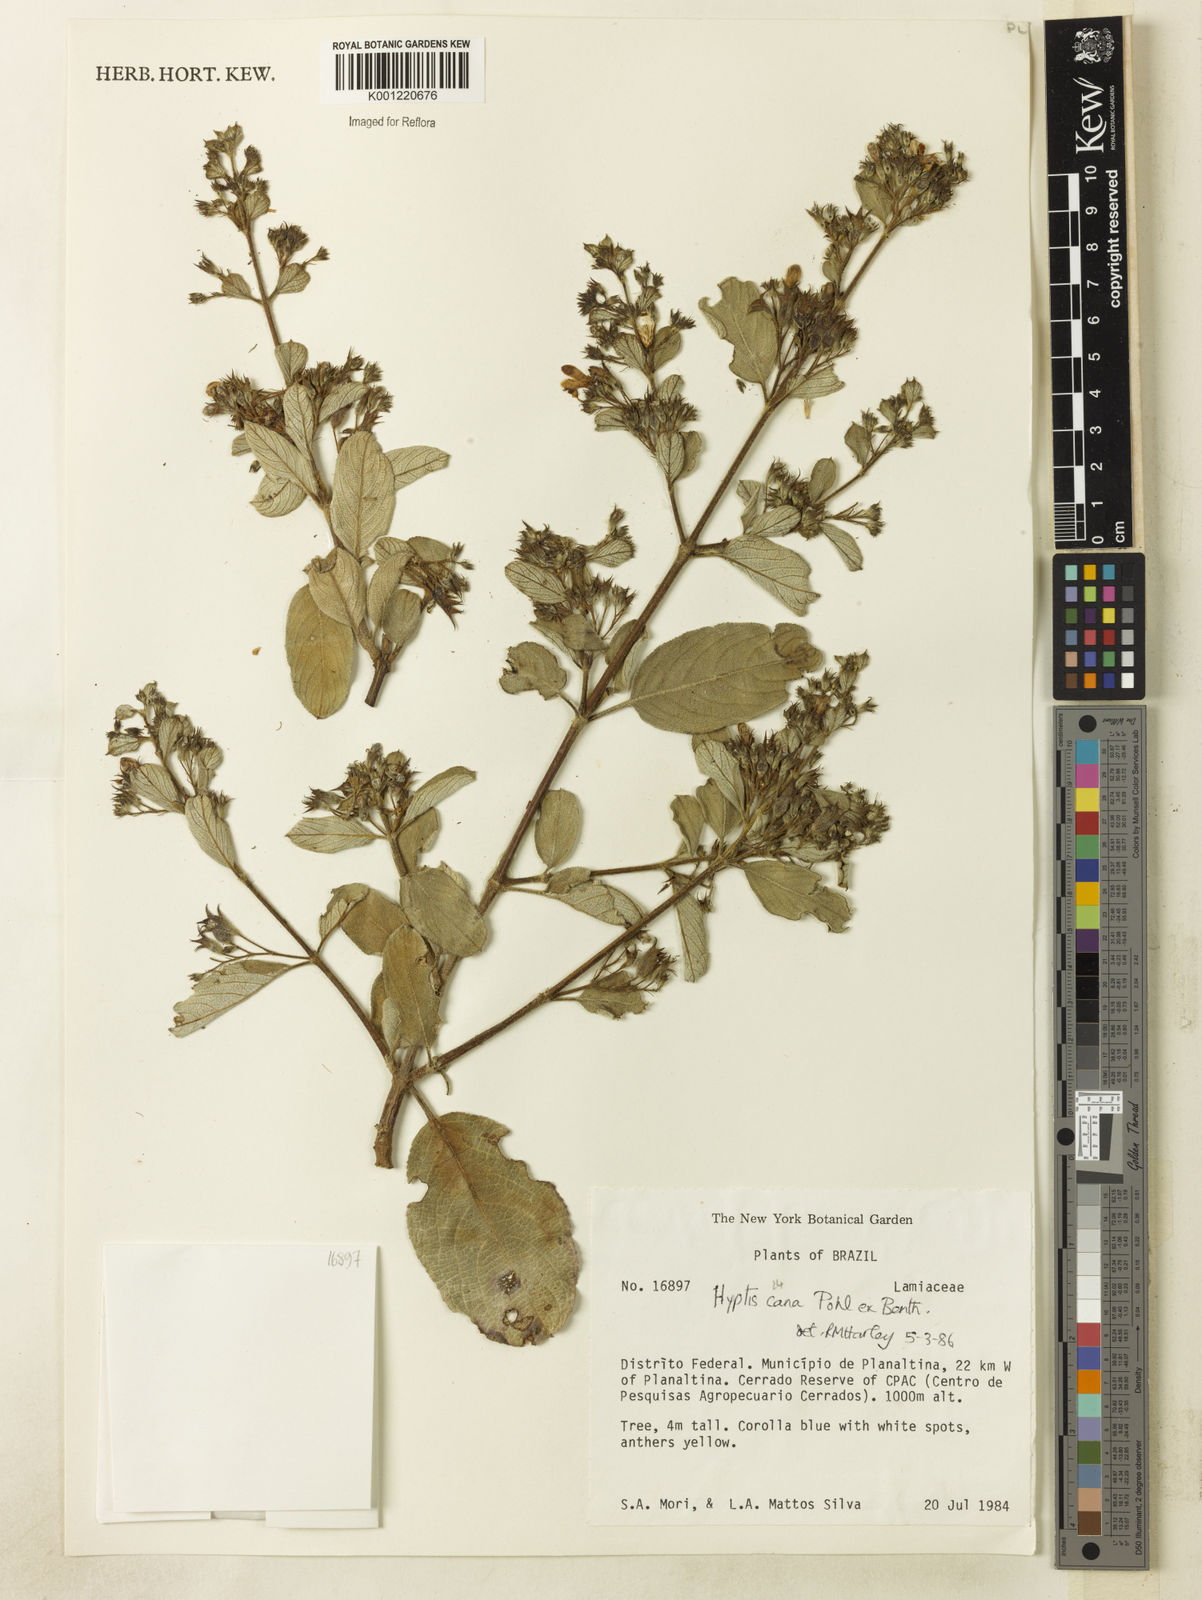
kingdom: Plantae
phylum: Tracheophyta
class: Magnoliopsida
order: Lamiales
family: Lamiaceae
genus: Hyptidendron
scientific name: Hyptidendron canum
